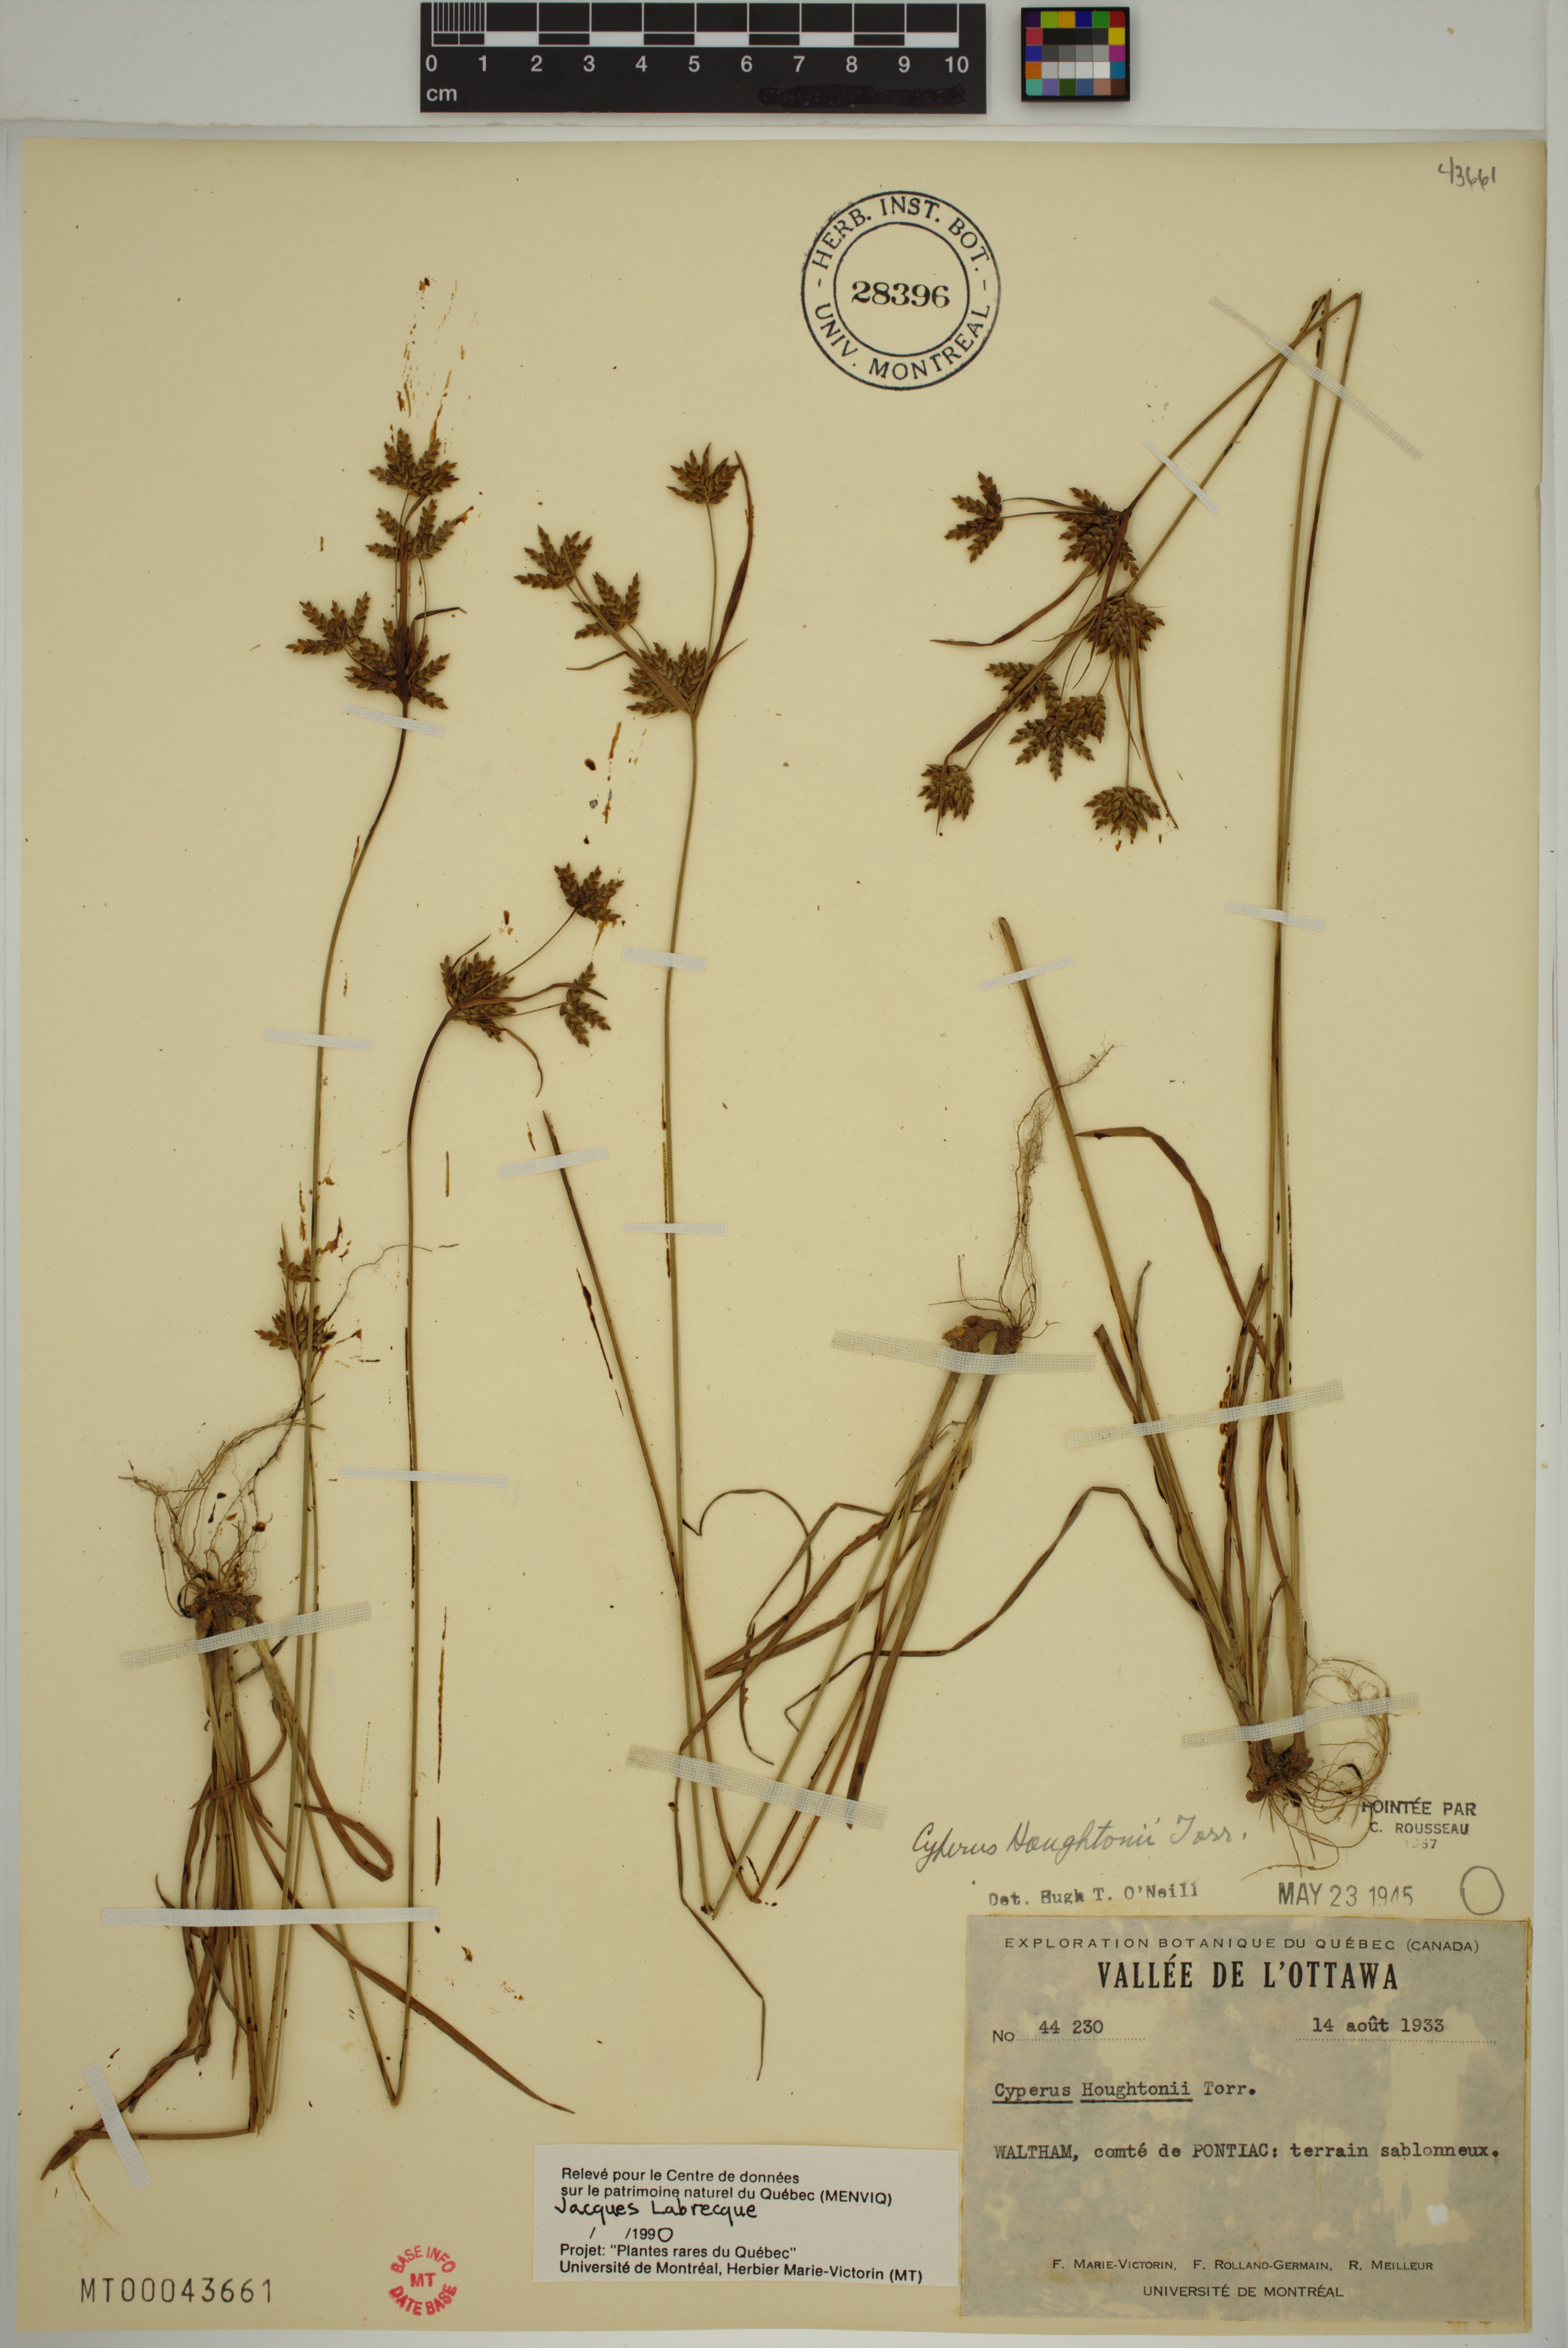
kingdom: Plantae
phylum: Tracheophyta
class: Liliopsida
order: Poales
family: Cyperaceae
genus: Cyperus
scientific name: Cyperus houghtonii
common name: Houghton's cyperus
